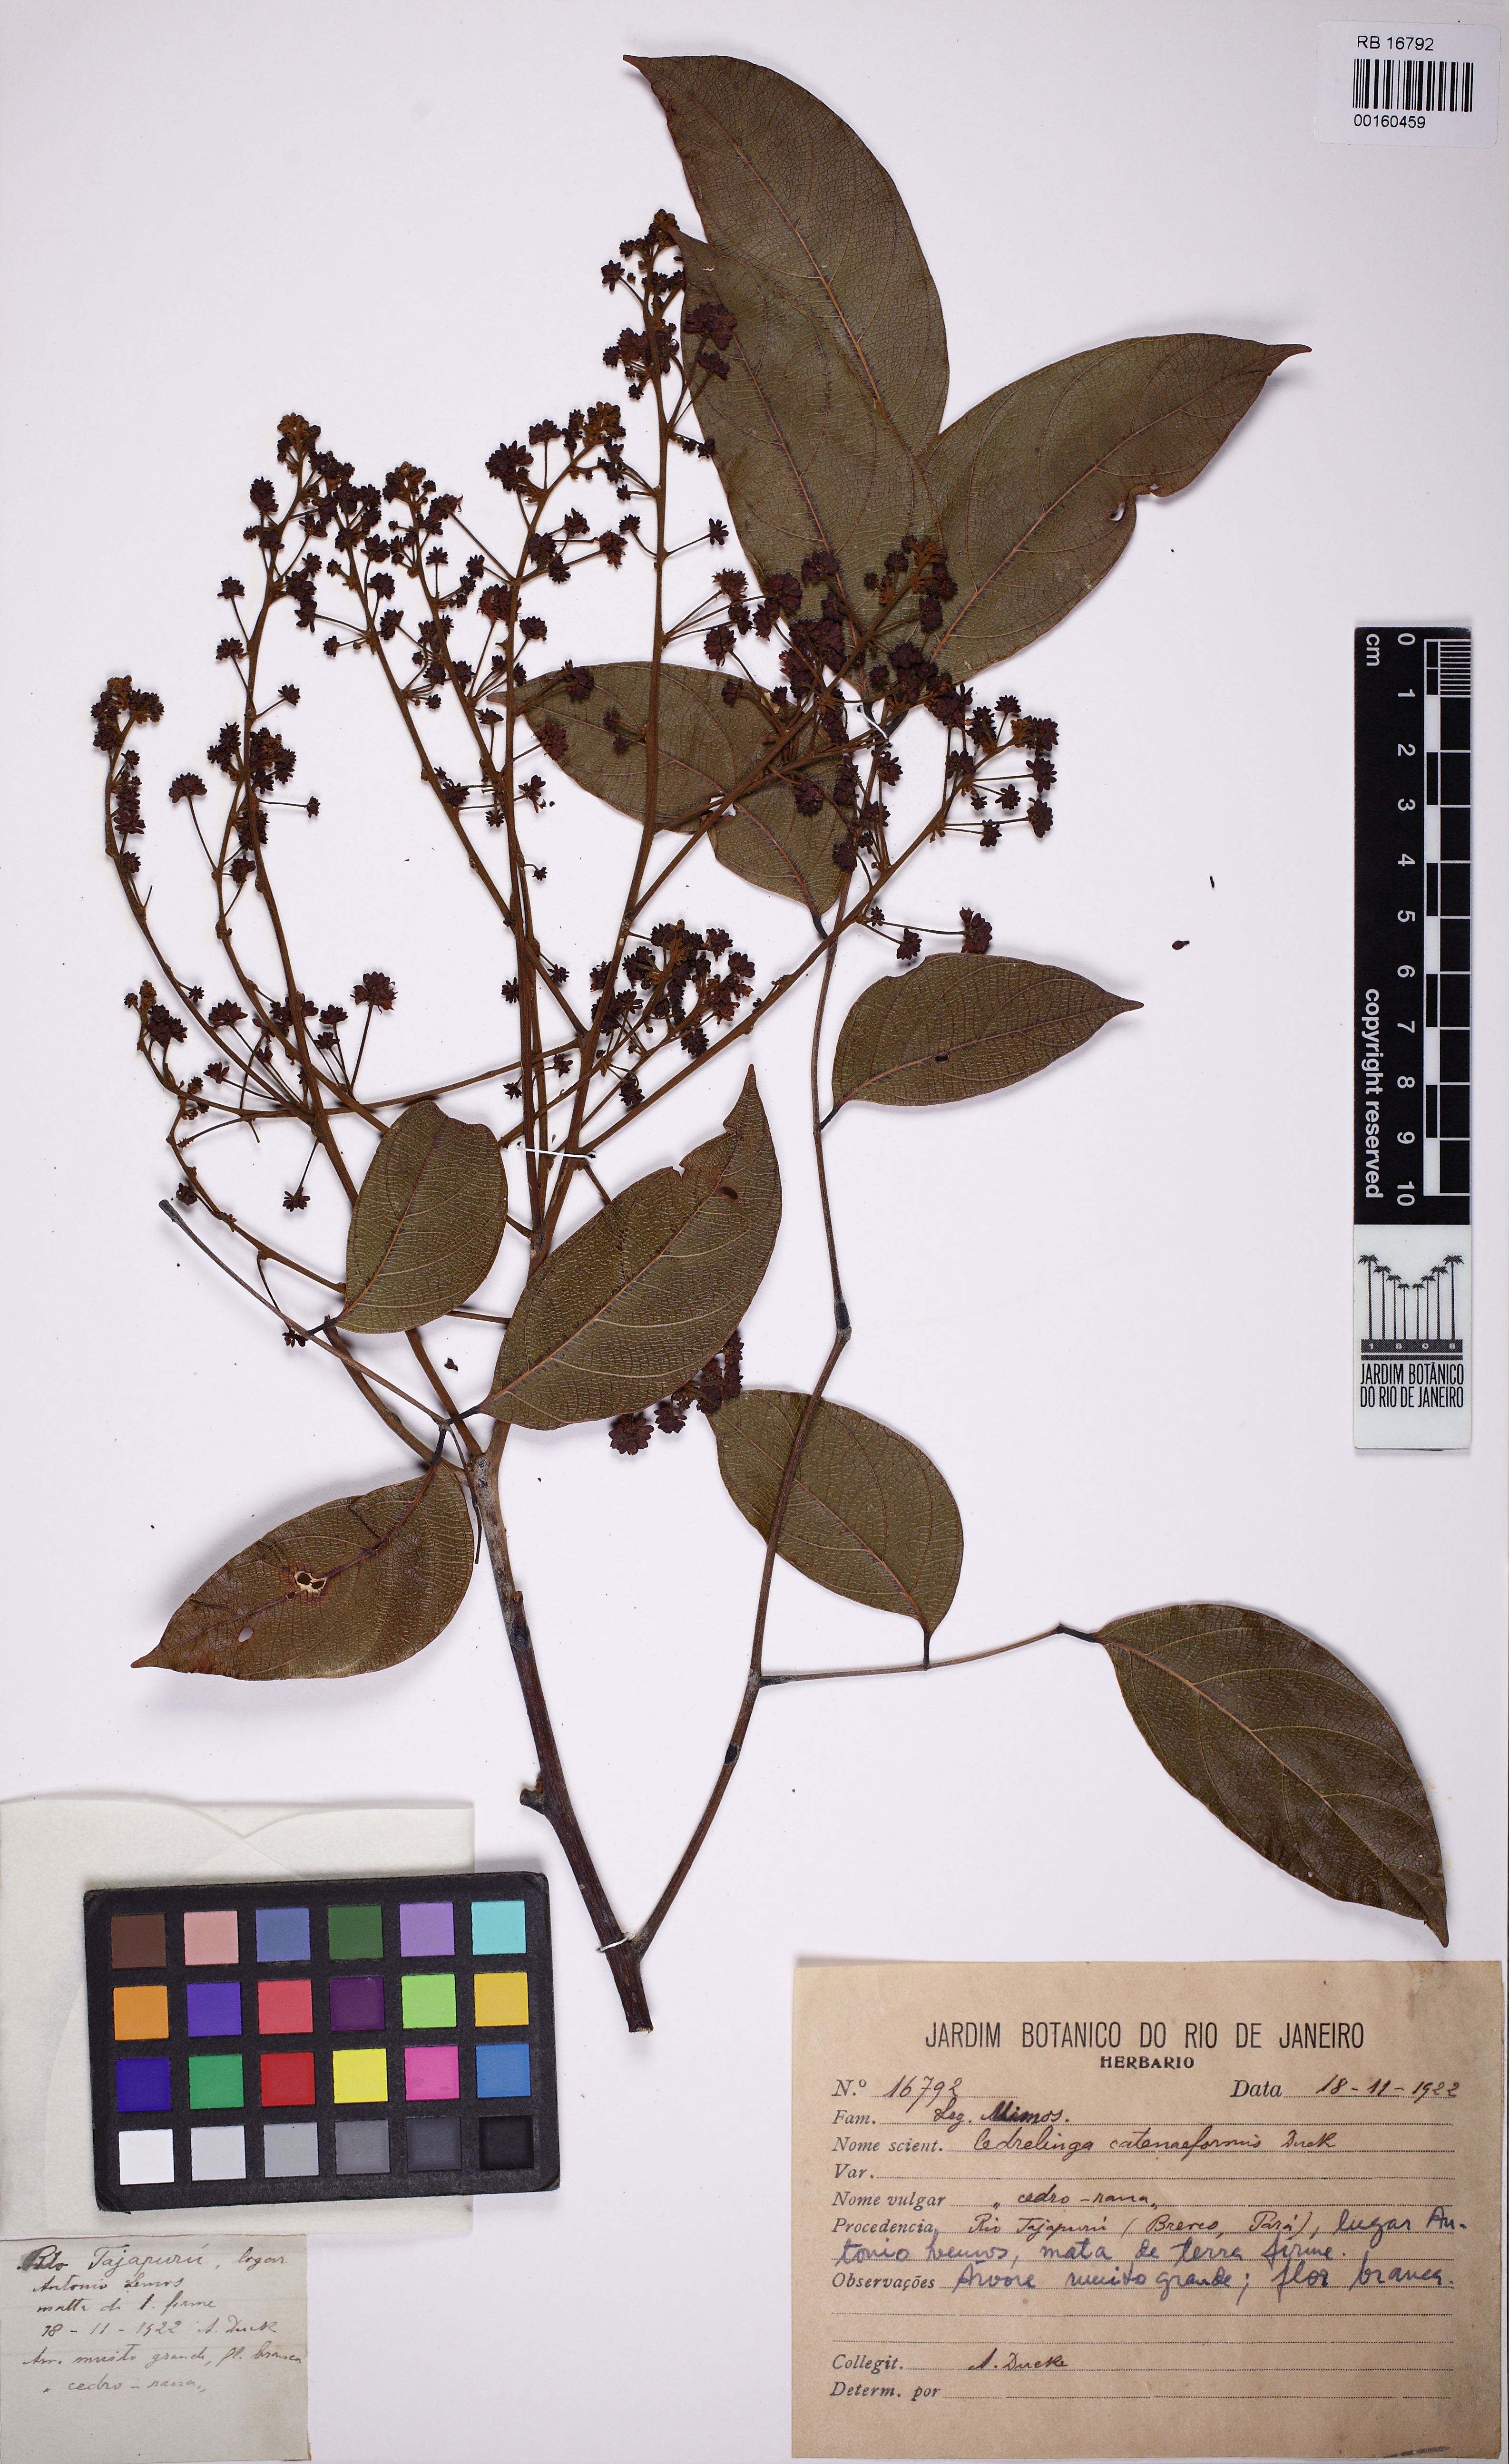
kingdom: Plantae
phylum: Tracheophyta
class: Magnoliopsida
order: Fabales
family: Fabaceae
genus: Cedrelinga
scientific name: Cedrelinga cateniformis
